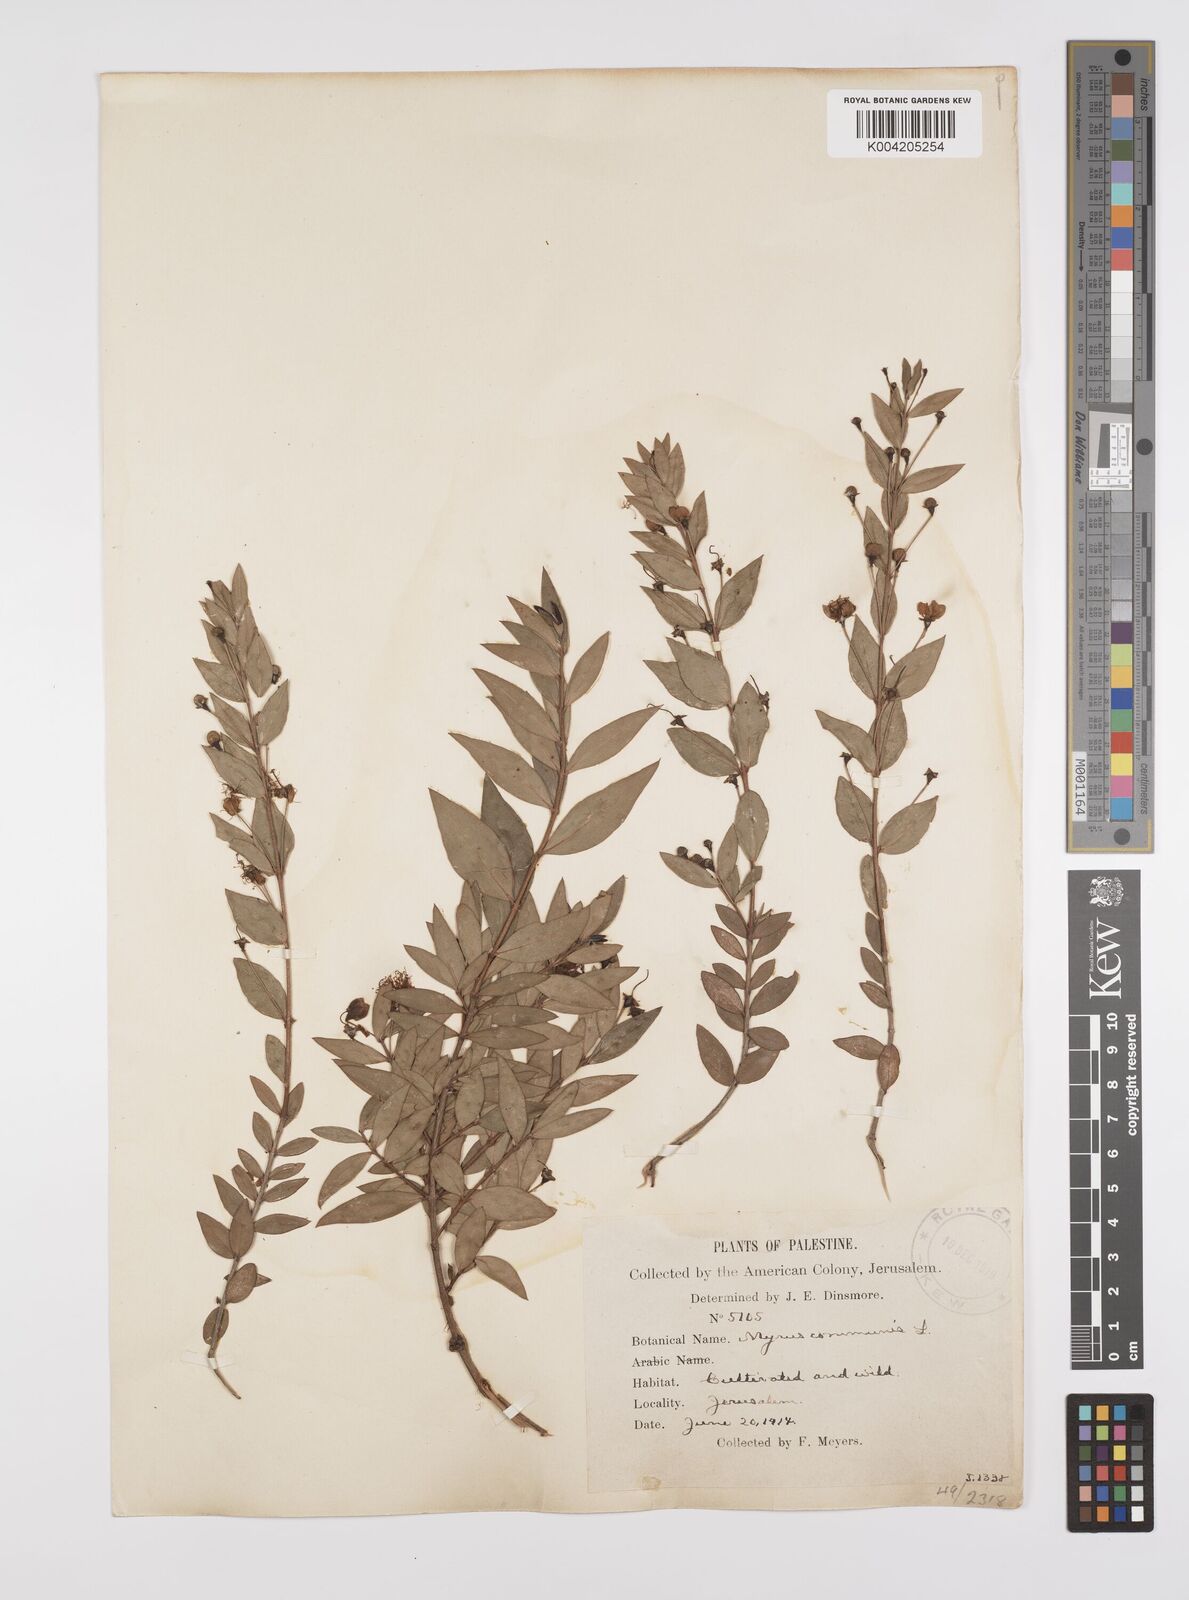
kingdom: Plantae
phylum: Tracheophyta
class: Magnoliopsida
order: Myrtales
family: Myrtaceae
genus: Myrtus
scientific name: Myrtus communis
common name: Myrtle
